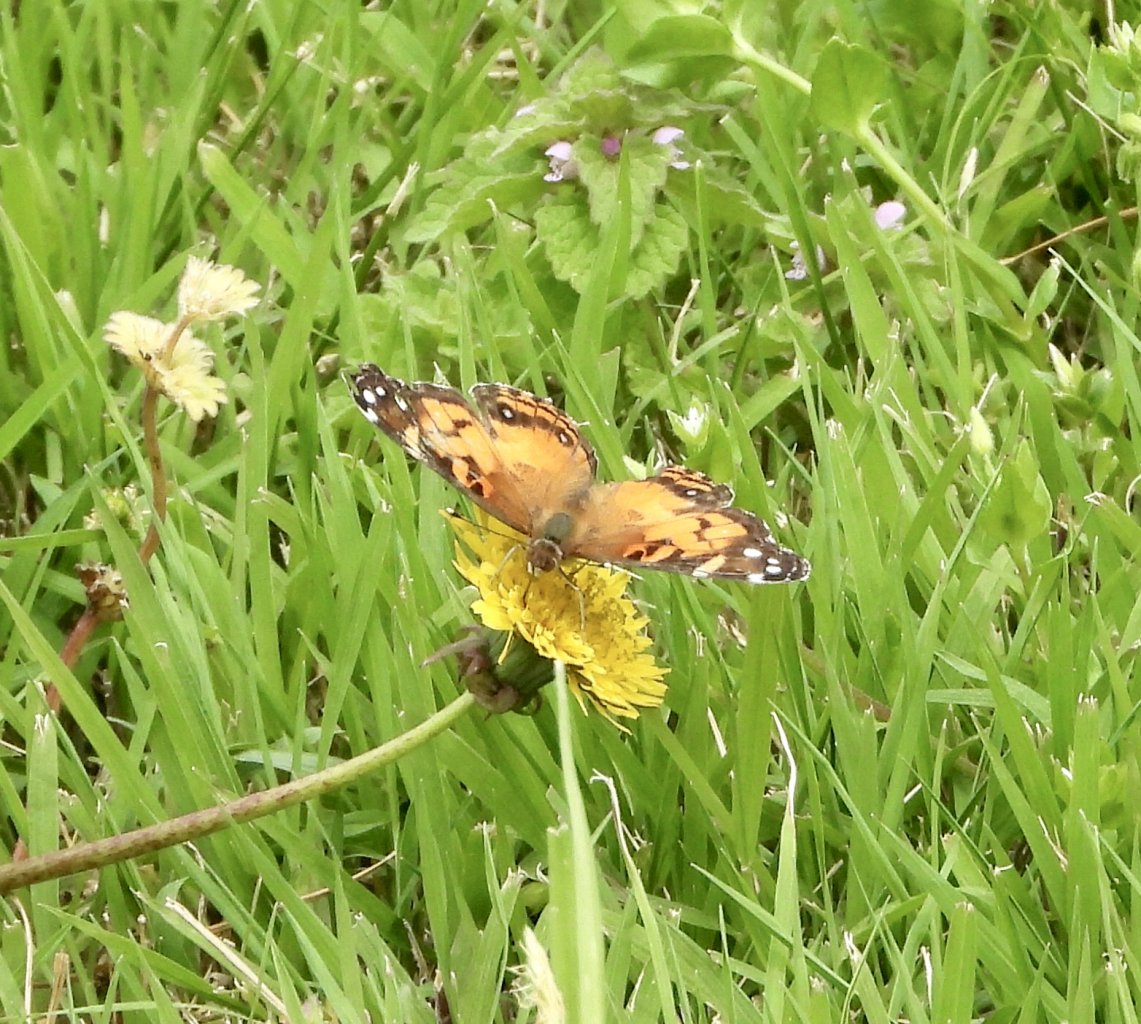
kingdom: Animalia
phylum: Arthropoda
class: Insecta
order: Lepidoptera
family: Nymphalidae
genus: Vanessa
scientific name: Vanessa virginiensis
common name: American Lady
